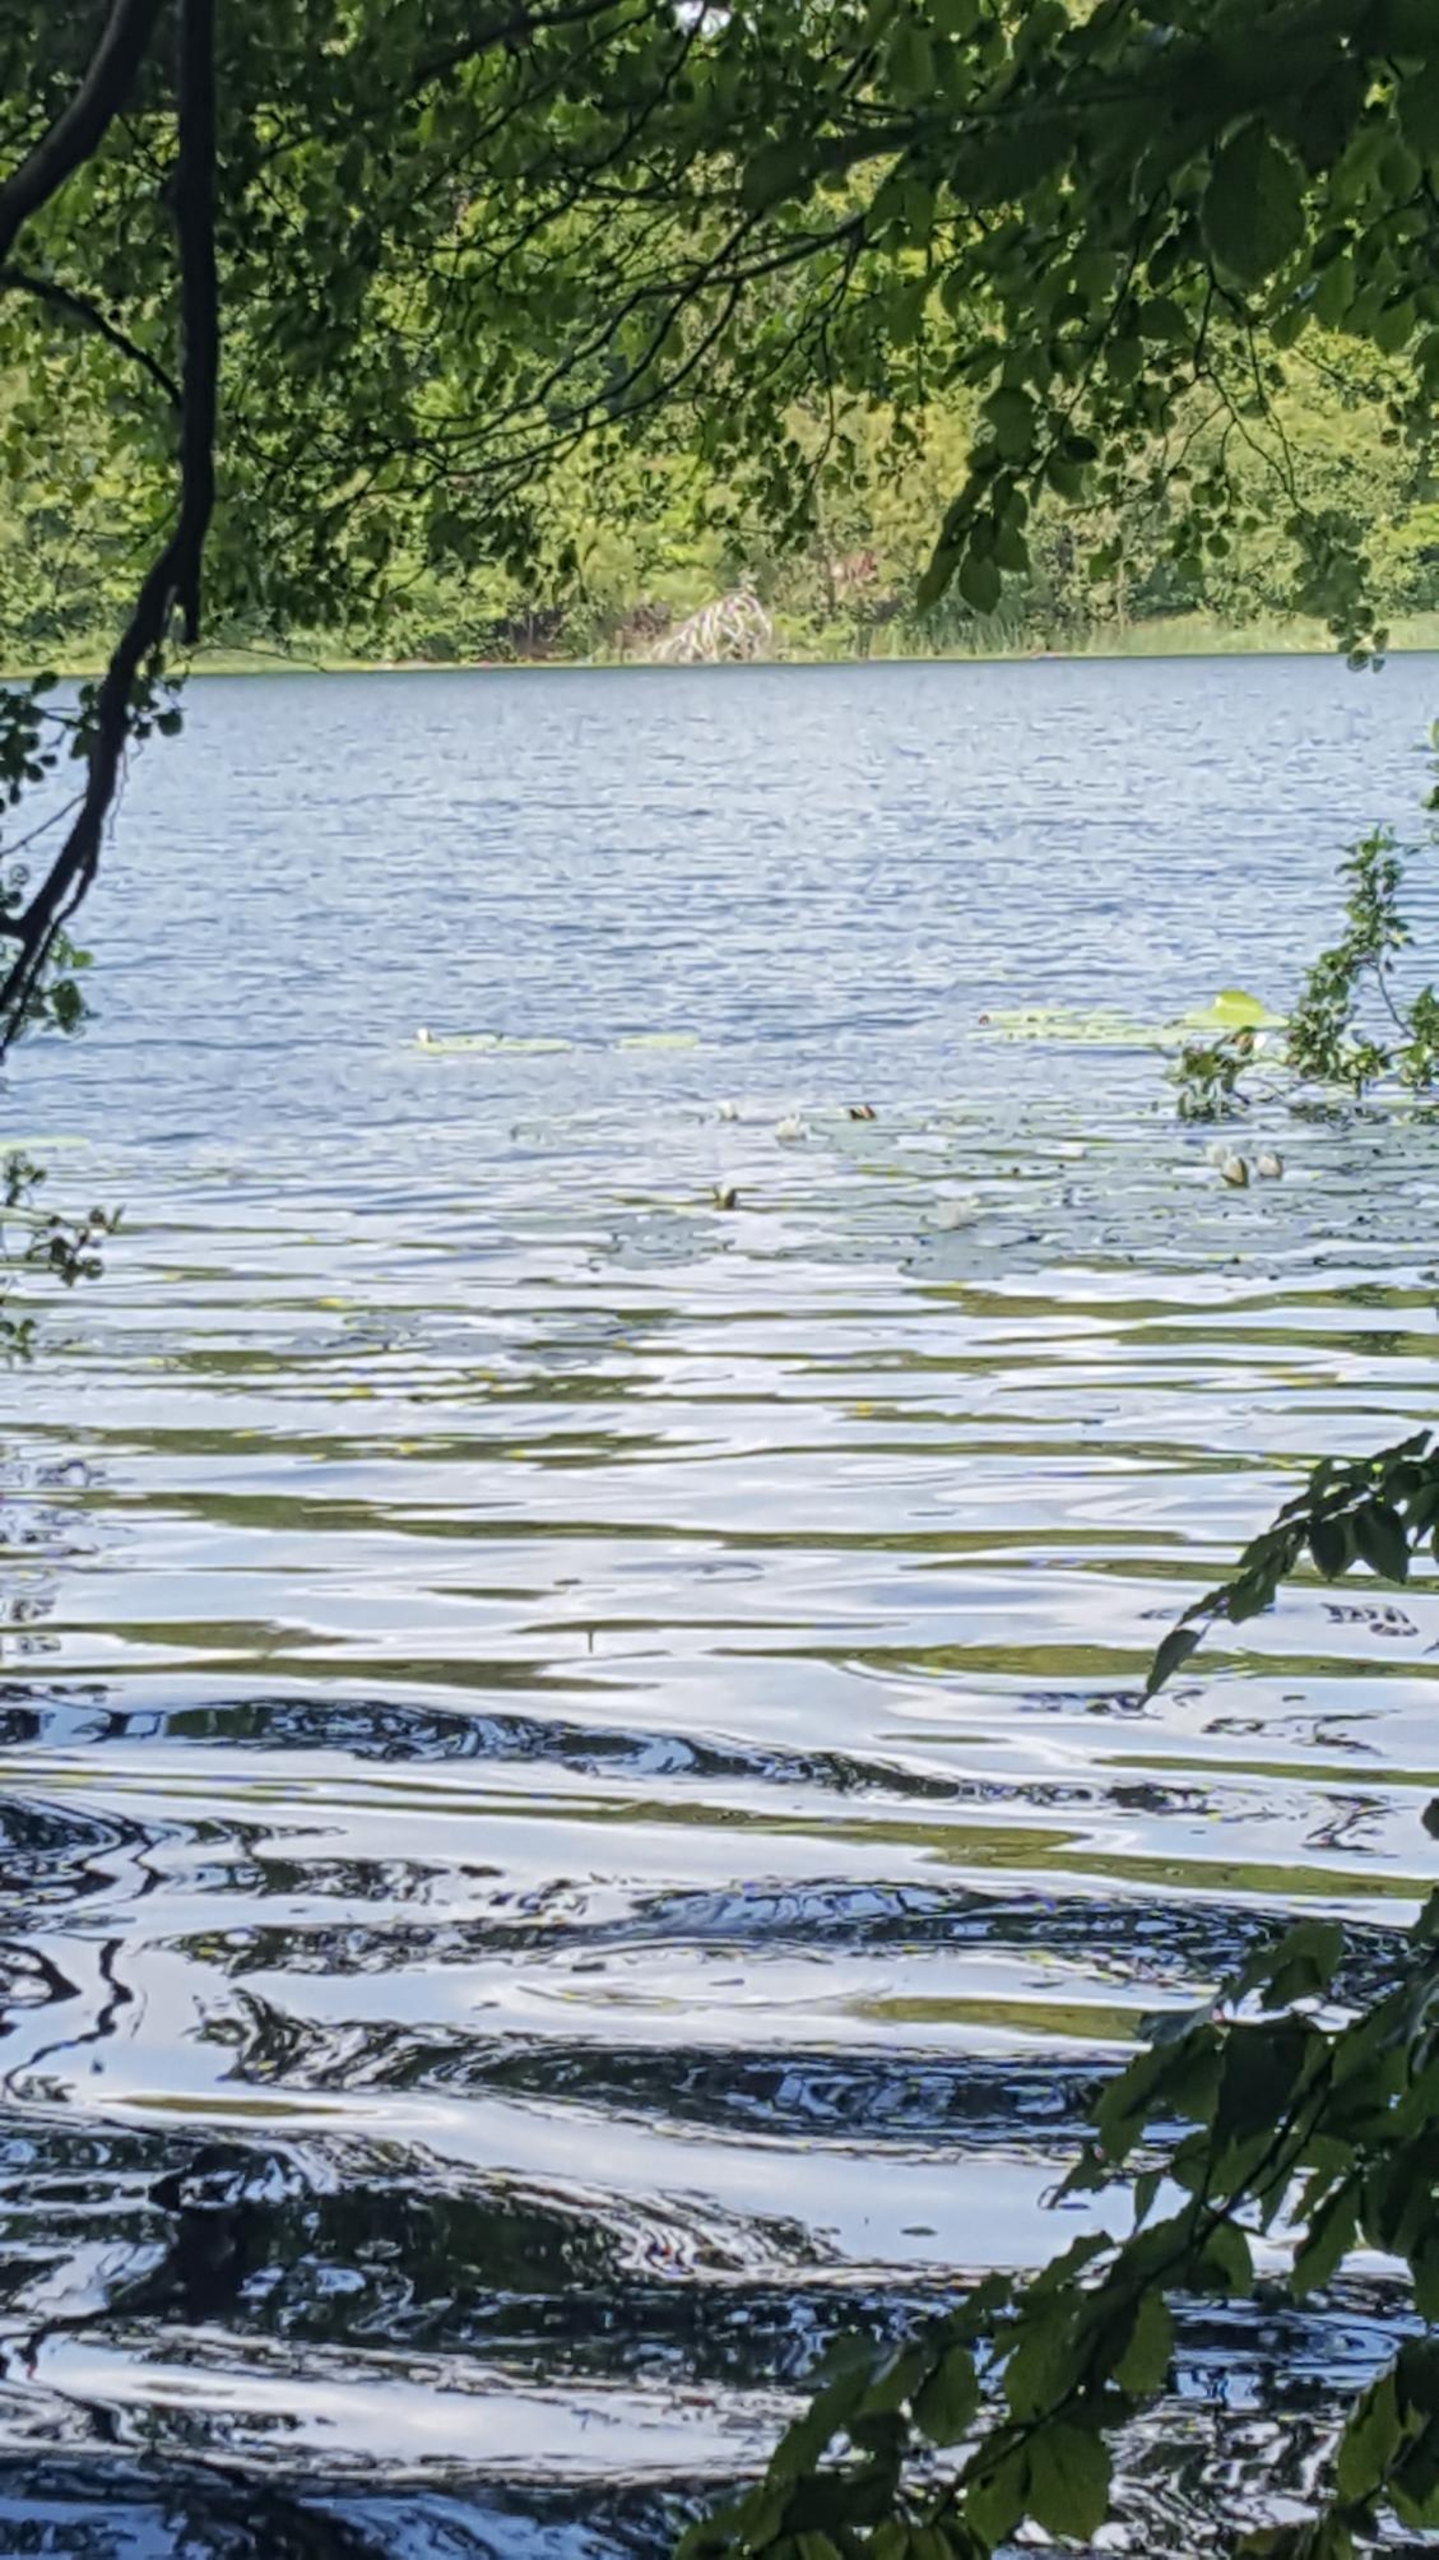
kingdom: Plantae
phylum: Tracheophyta
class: Magnoliopsida
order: Nymphaeales
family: Nymphaeaceae
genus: Nymphaea
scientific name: Nymphaea alba
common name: Hvid åkande
